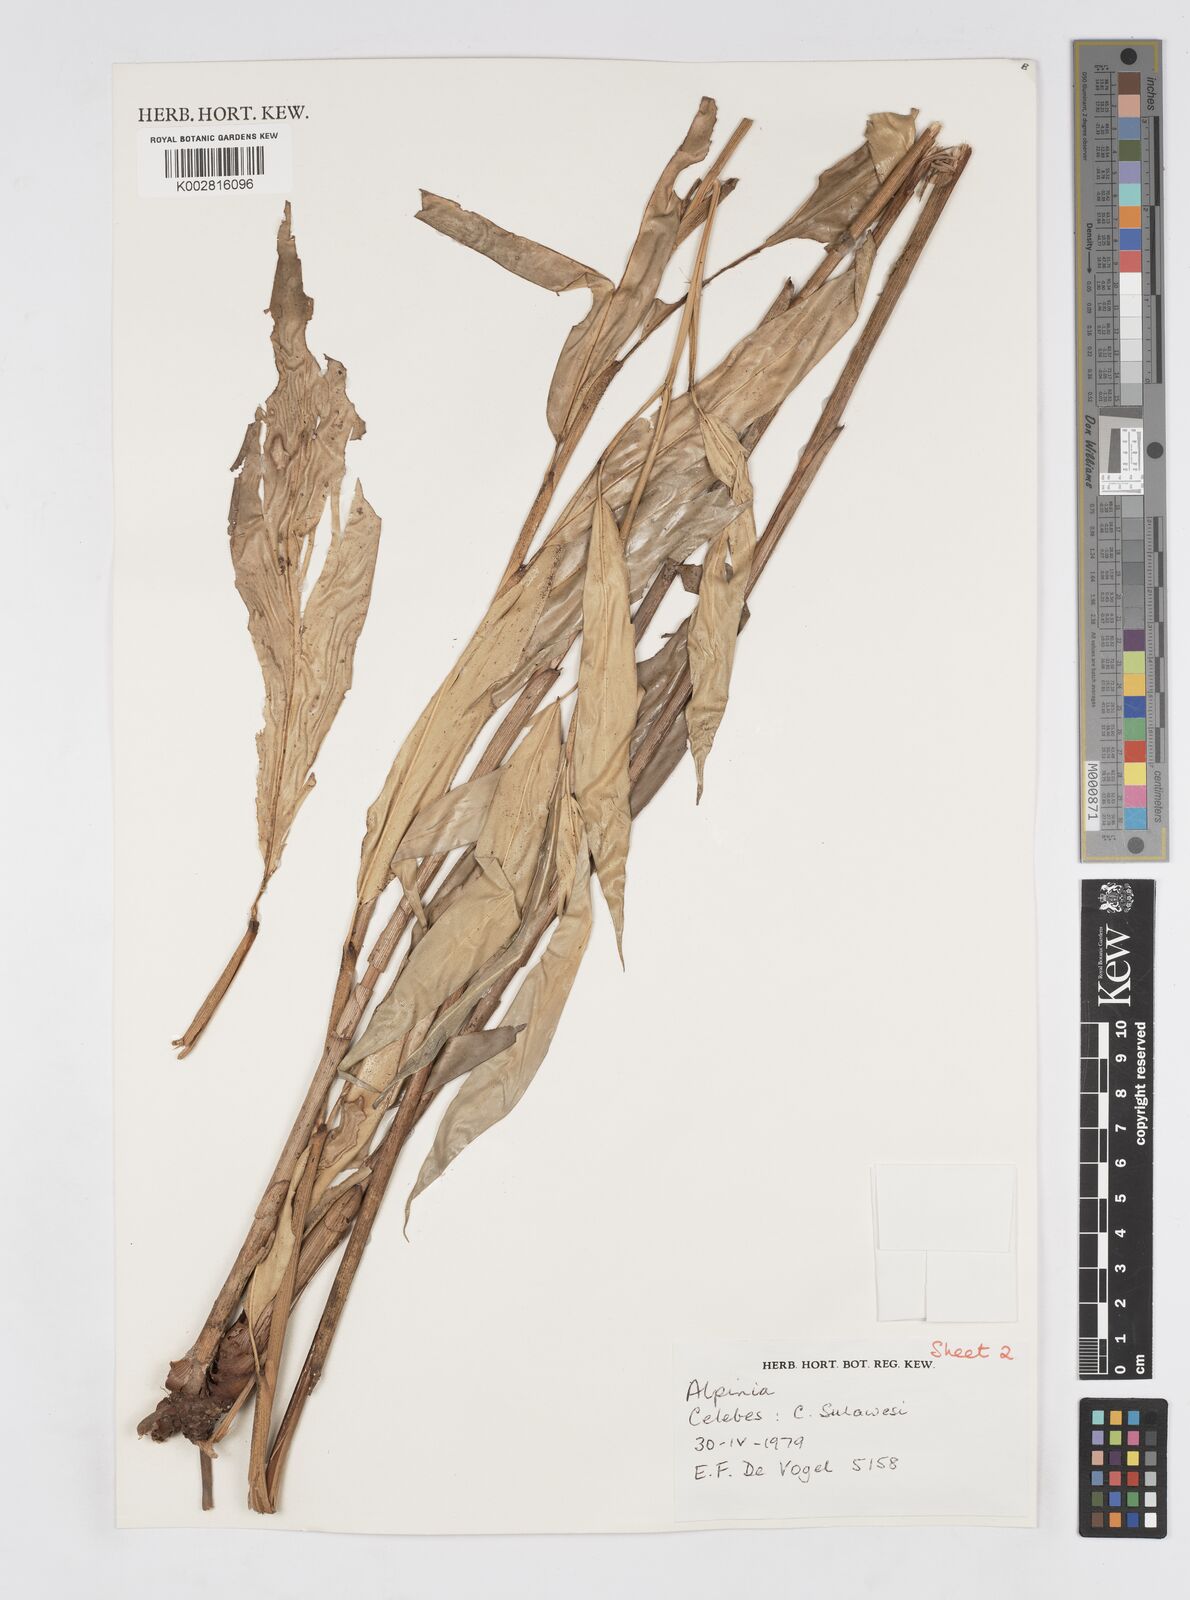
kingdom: Plantae
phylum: Tracheophyta
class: Liliopsida
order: Zingiberales
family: Zingiberaceae
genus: Alpinia
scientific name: Alpinia
